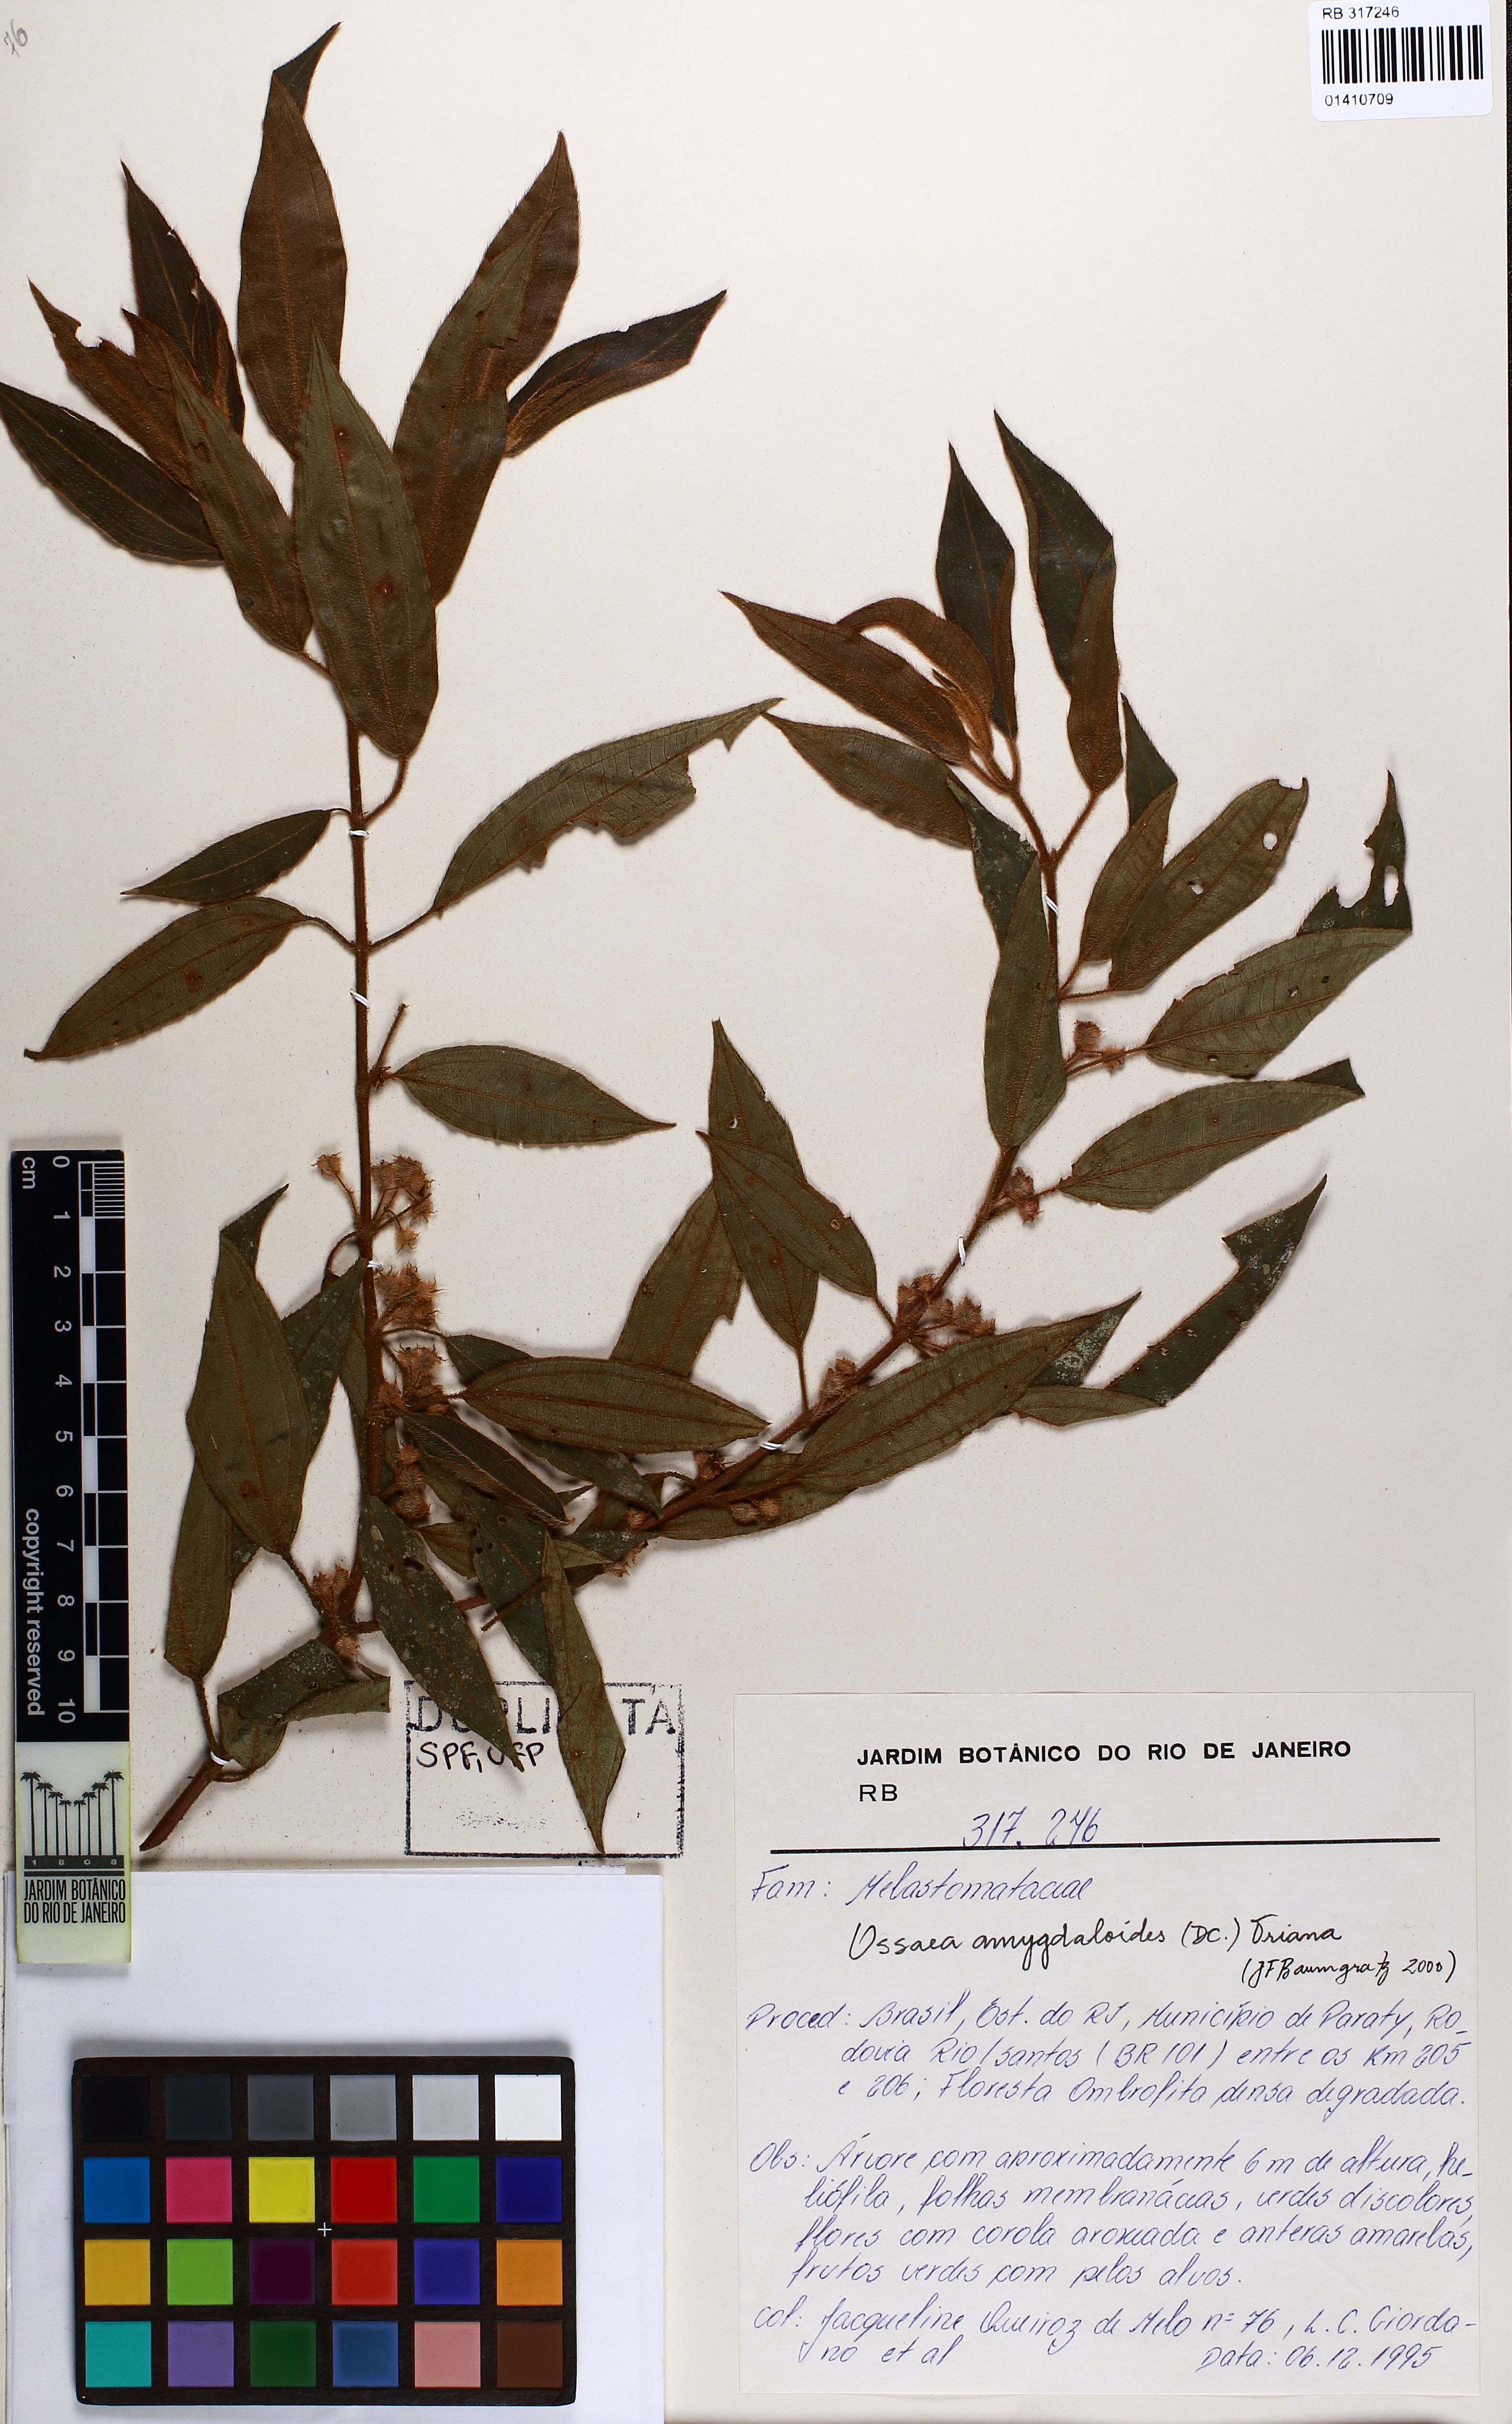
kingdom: Plantae
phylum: Tracheophyta
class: Magnoliopsida
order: Myrtales
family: Melastomataceae
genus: Miconia
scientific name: Miconia amygdaloides
